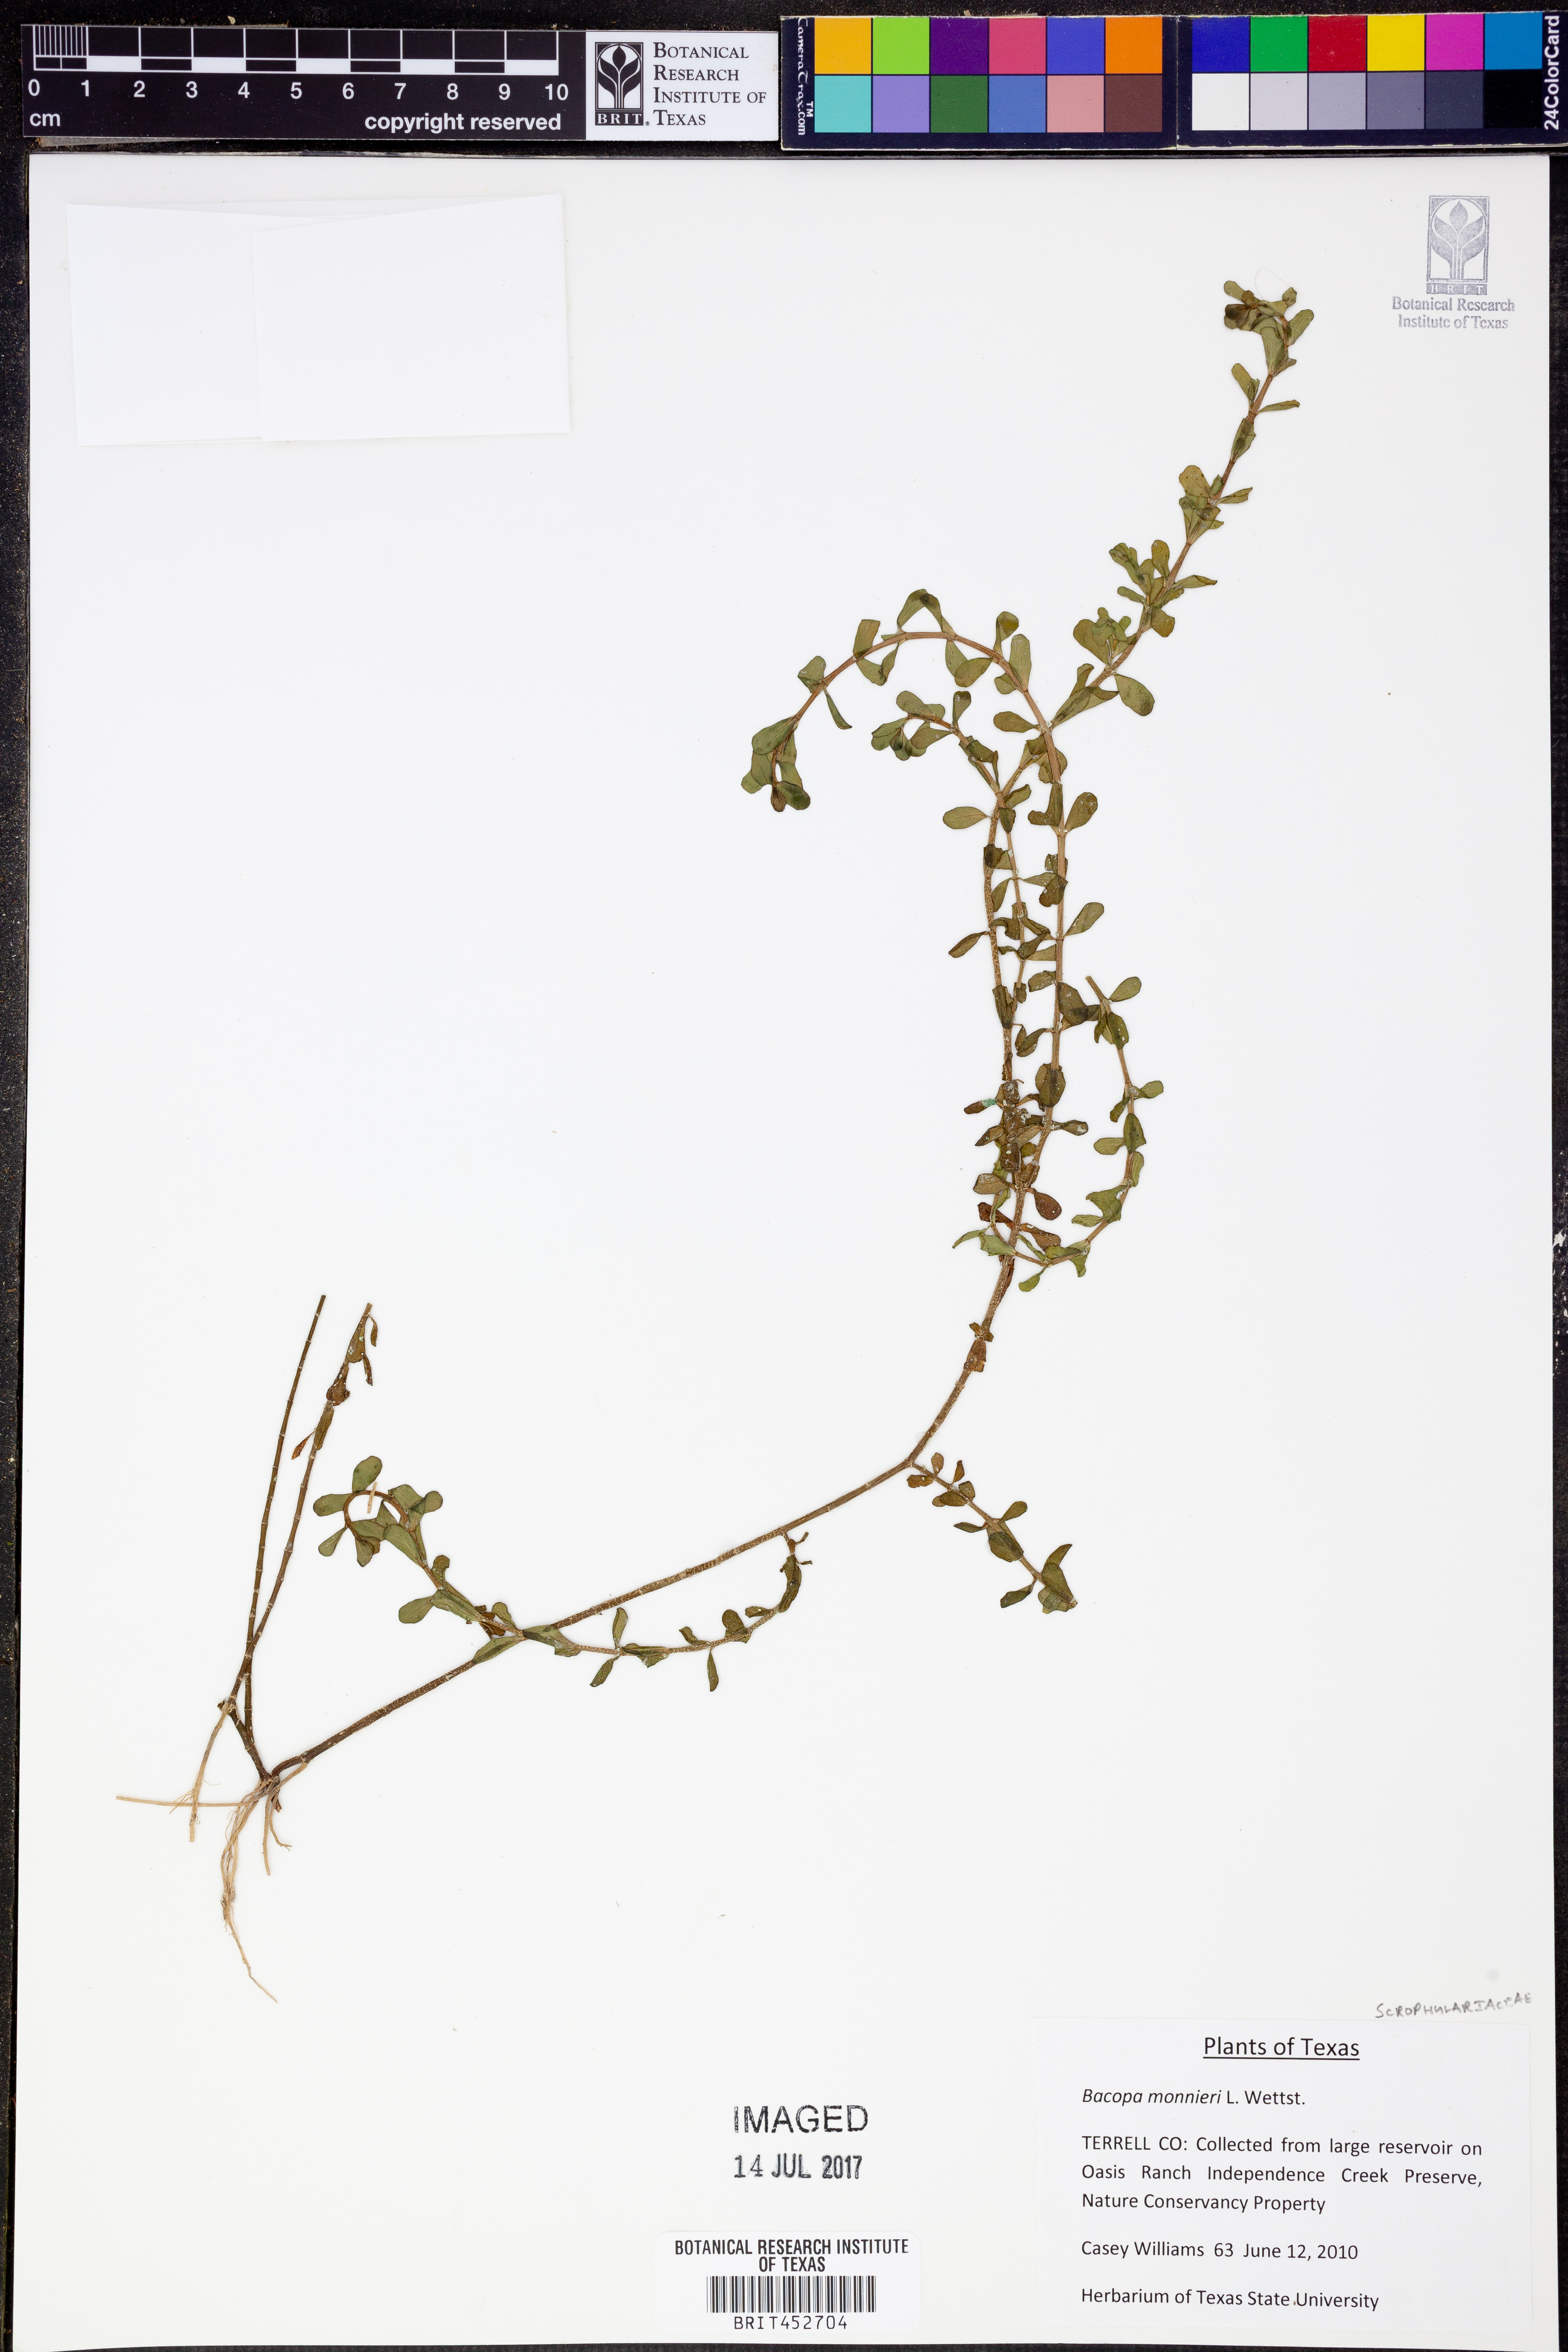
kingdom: Plantae
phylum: Tracheophyta
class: Magnoliopsida
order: Lamiales
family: Plantaginaceae
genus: Bacopa
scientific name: Bacopa monnieri
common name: Indian-pennywort
